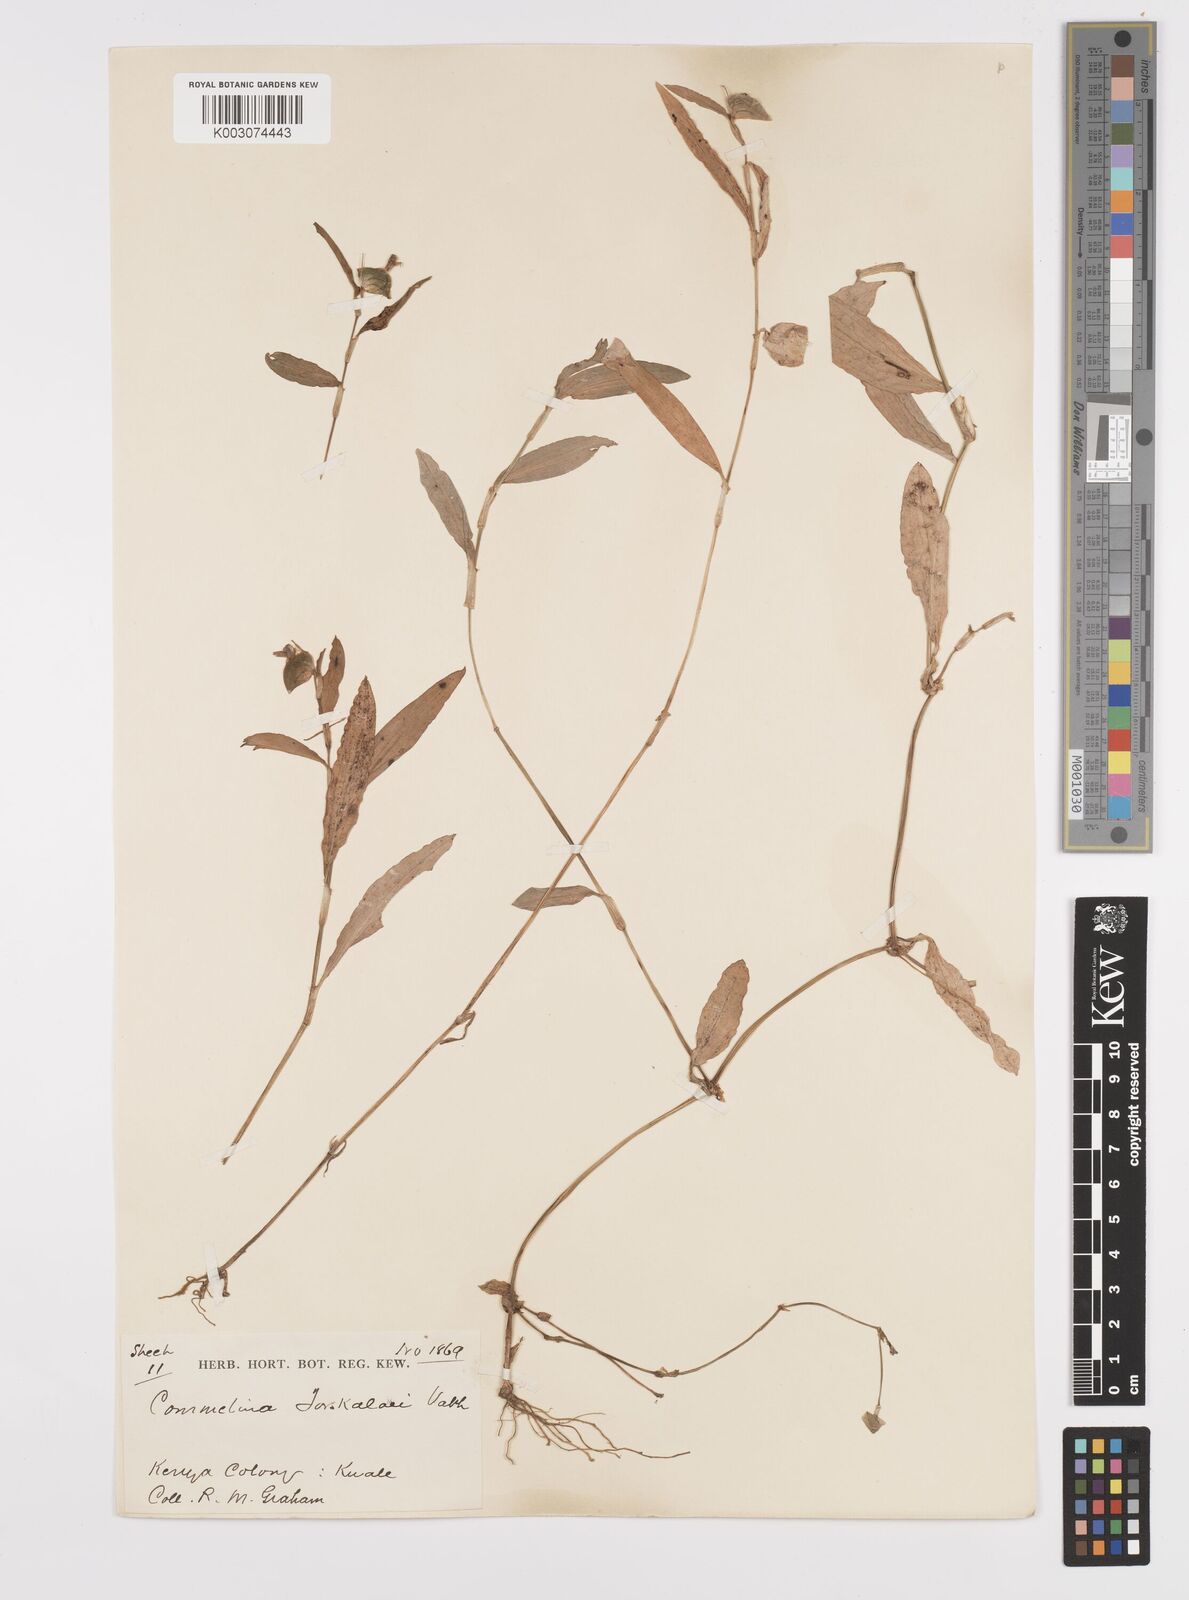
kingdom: Plantae
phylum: Tracheophyta
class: Liliopsida
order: Commelinales
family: Commelinaceae
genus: Commelina
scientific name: Commelina
